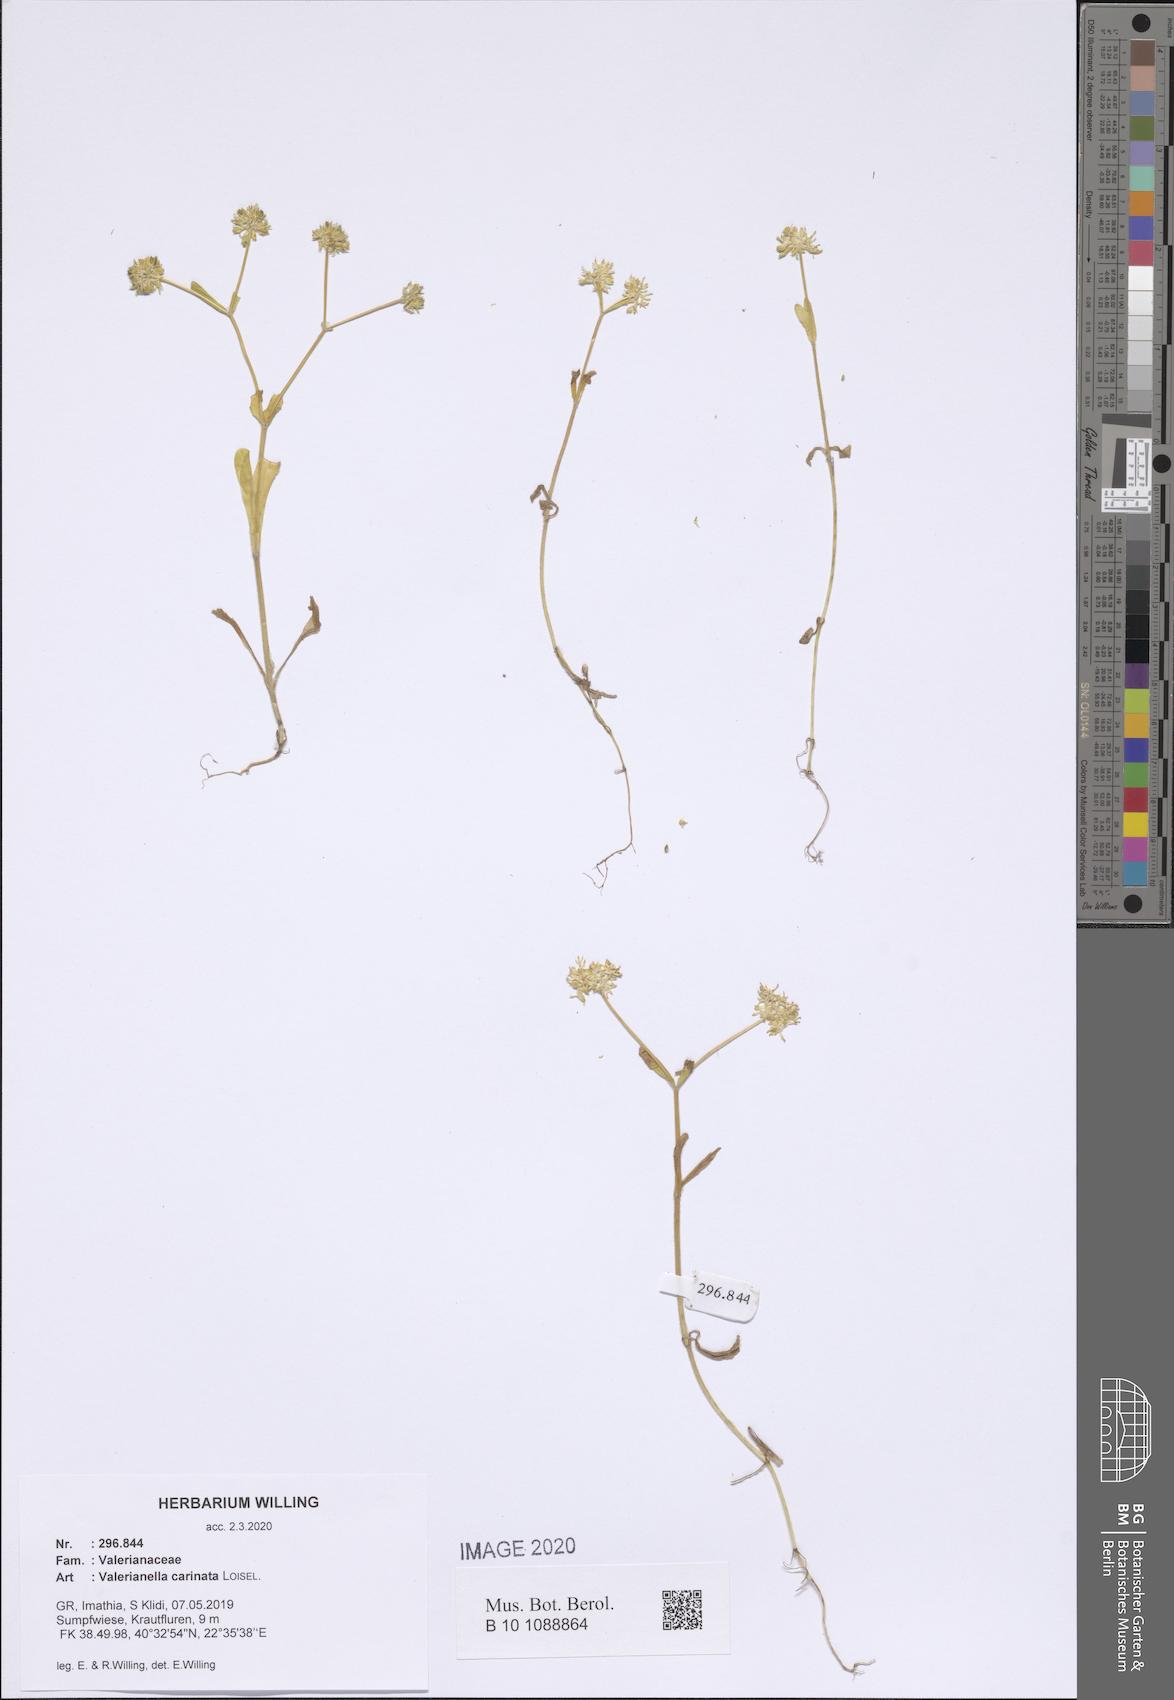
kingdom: Plantae
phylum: Tracheophyta
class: Magnoliopsida
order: Dipsacales
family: Caprifoliaceae
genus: Valerianella
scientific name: Valerianella carinata
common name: Keeled-fruited cornsalad
